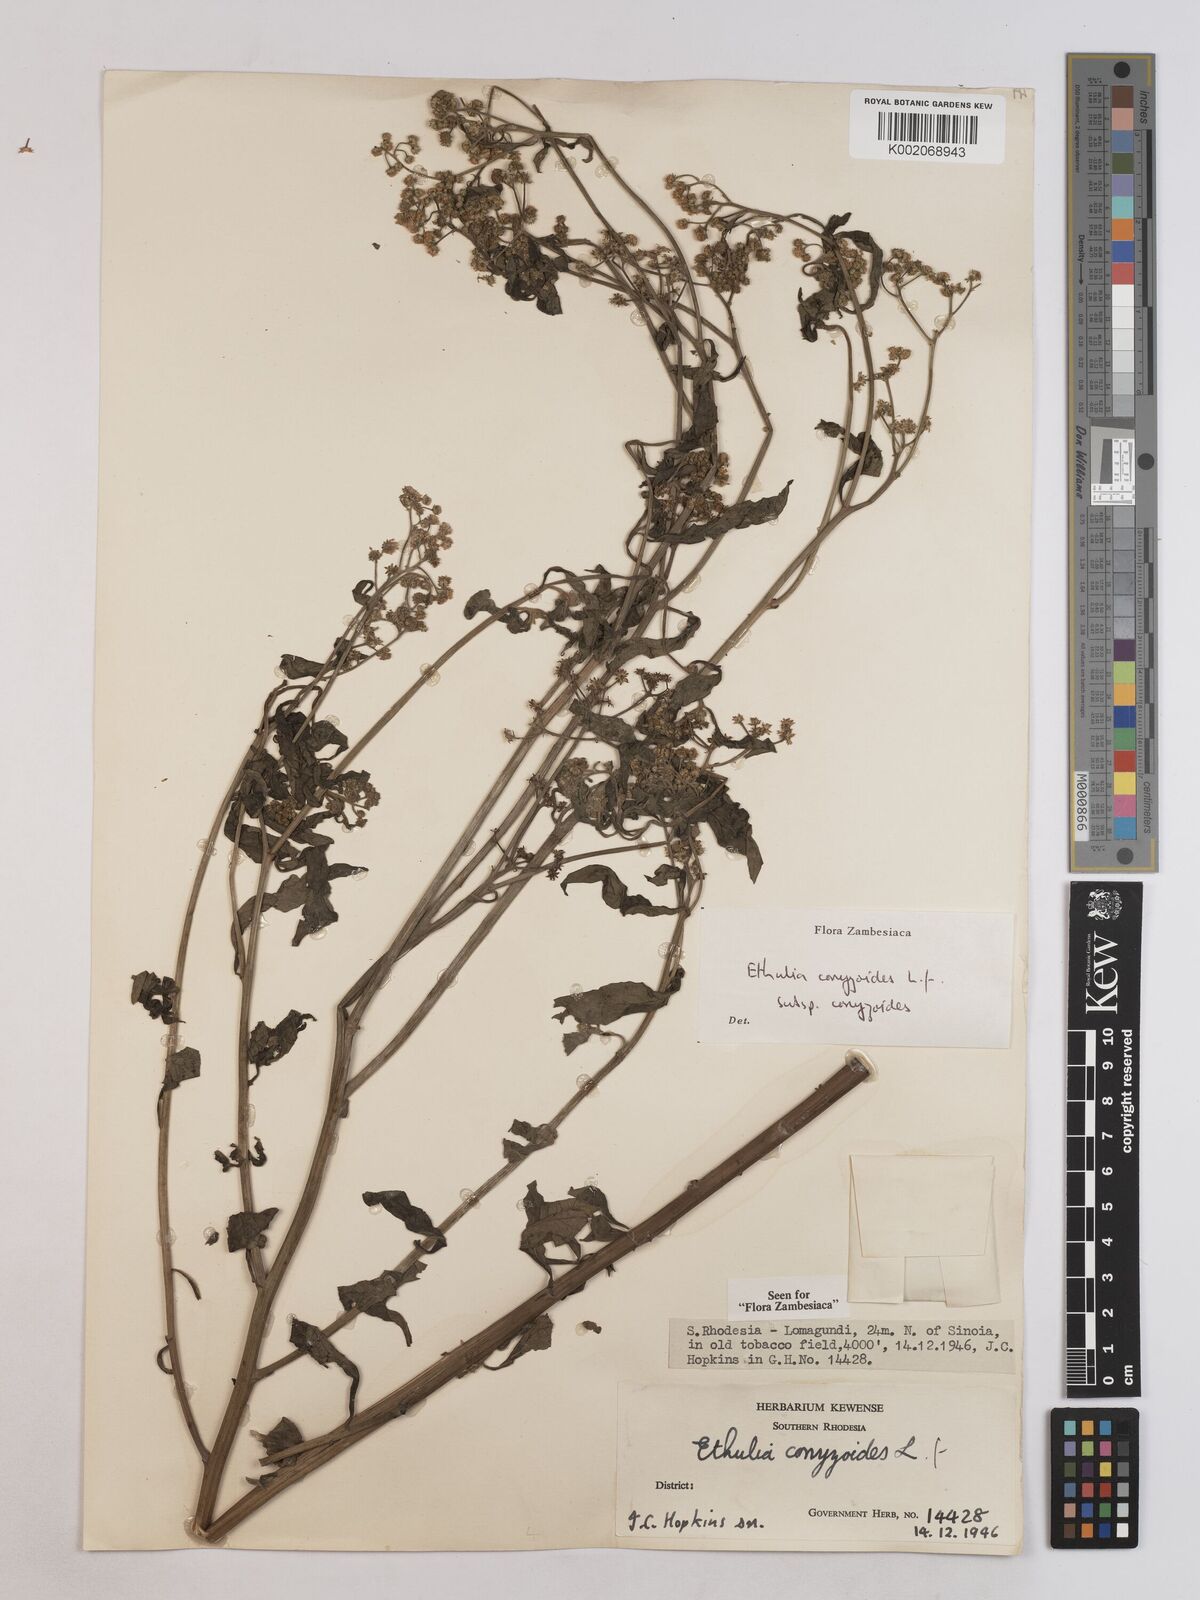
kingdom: Plantae
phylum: Tracheophyta
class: Magnoliopsida
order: Asterales
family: Asteraceae
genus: Ethulia
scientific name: Ethulia conyzoides
